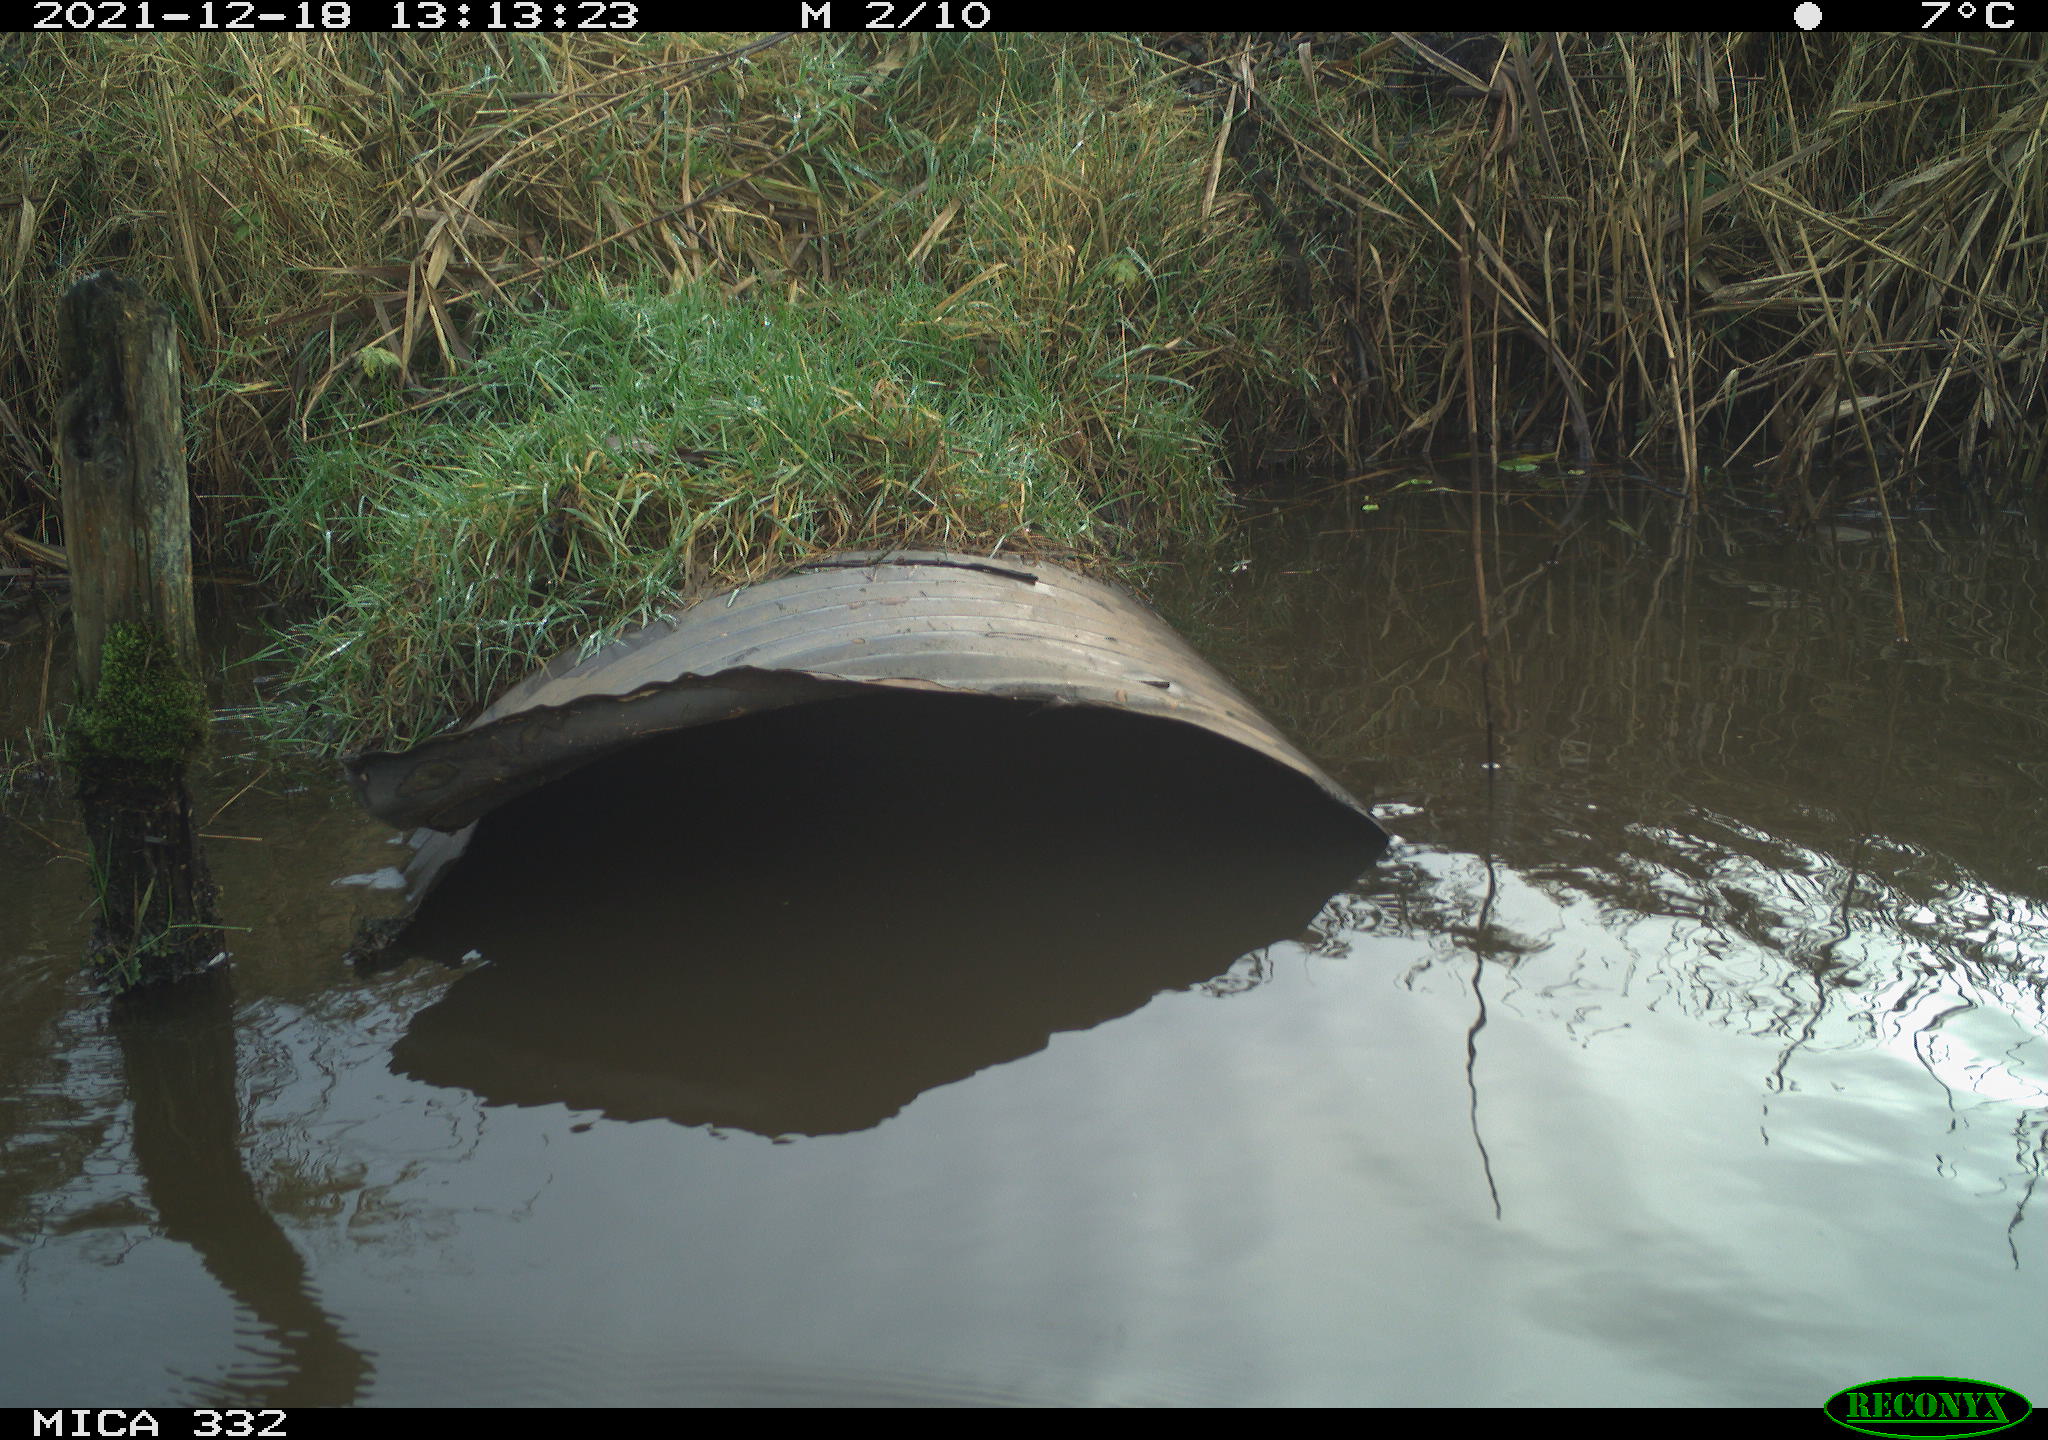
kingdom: Animalia
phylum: Chordata
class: Aves
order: Anseriformes
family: Anatidae
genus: Cygnus
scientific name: Cygnus olor
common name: Mute swan
